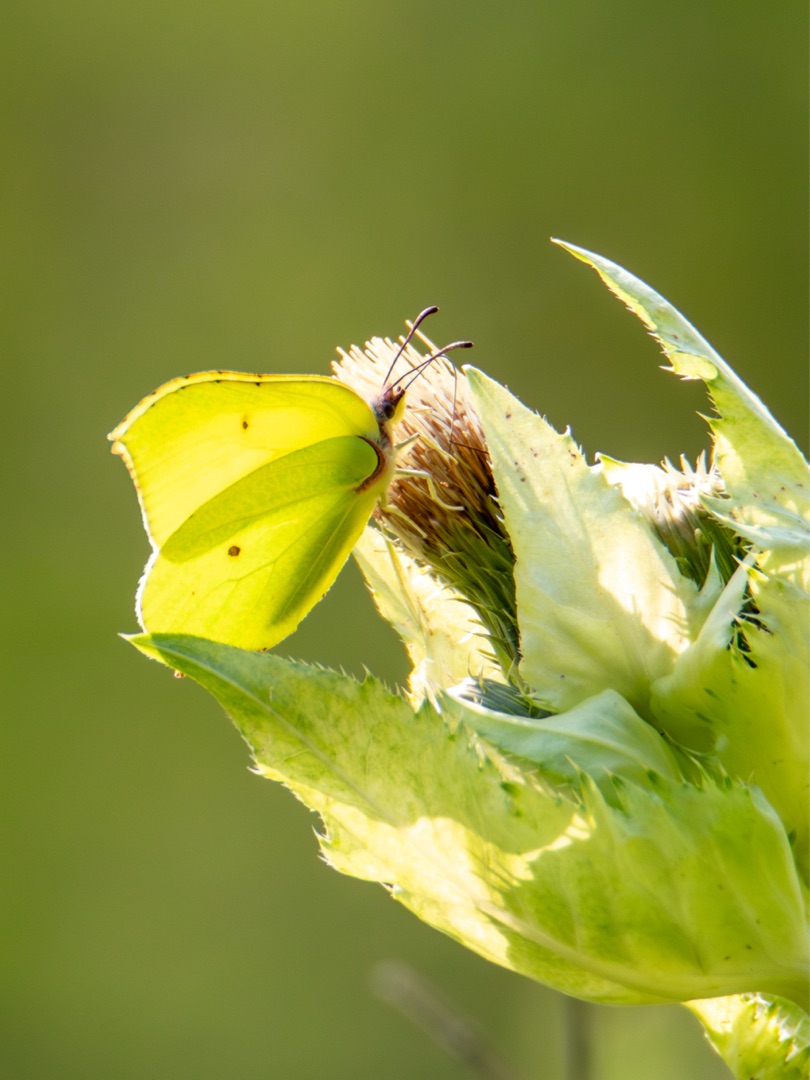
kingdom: Animalia
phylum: Arthropoda
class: Insecta
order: Lepidoptera
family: Pieridae
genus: Gonepteryx
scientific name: Gonepteryx rhamni
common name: Citronsommerfugl
